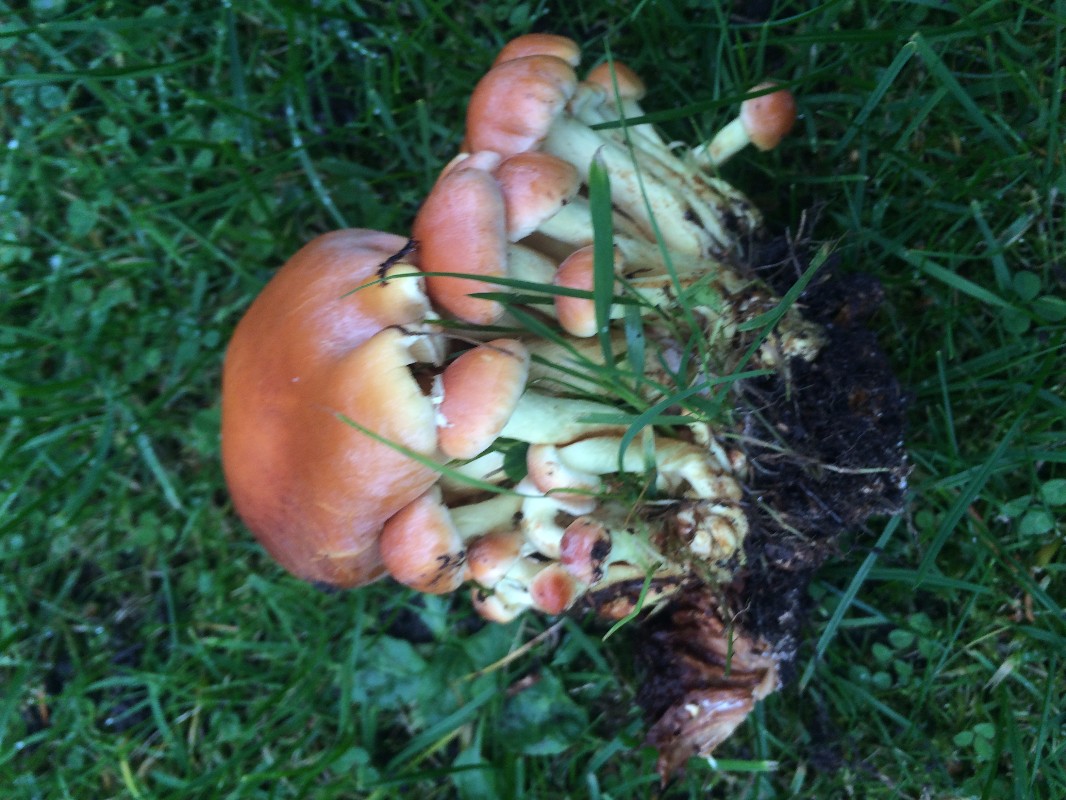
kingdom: Fungi
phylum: Basidiomycota
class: Agaricomycetes
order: Agaricales
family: Strophariaceae
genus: Hypholoma
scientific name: Hypholoma fasciculare
